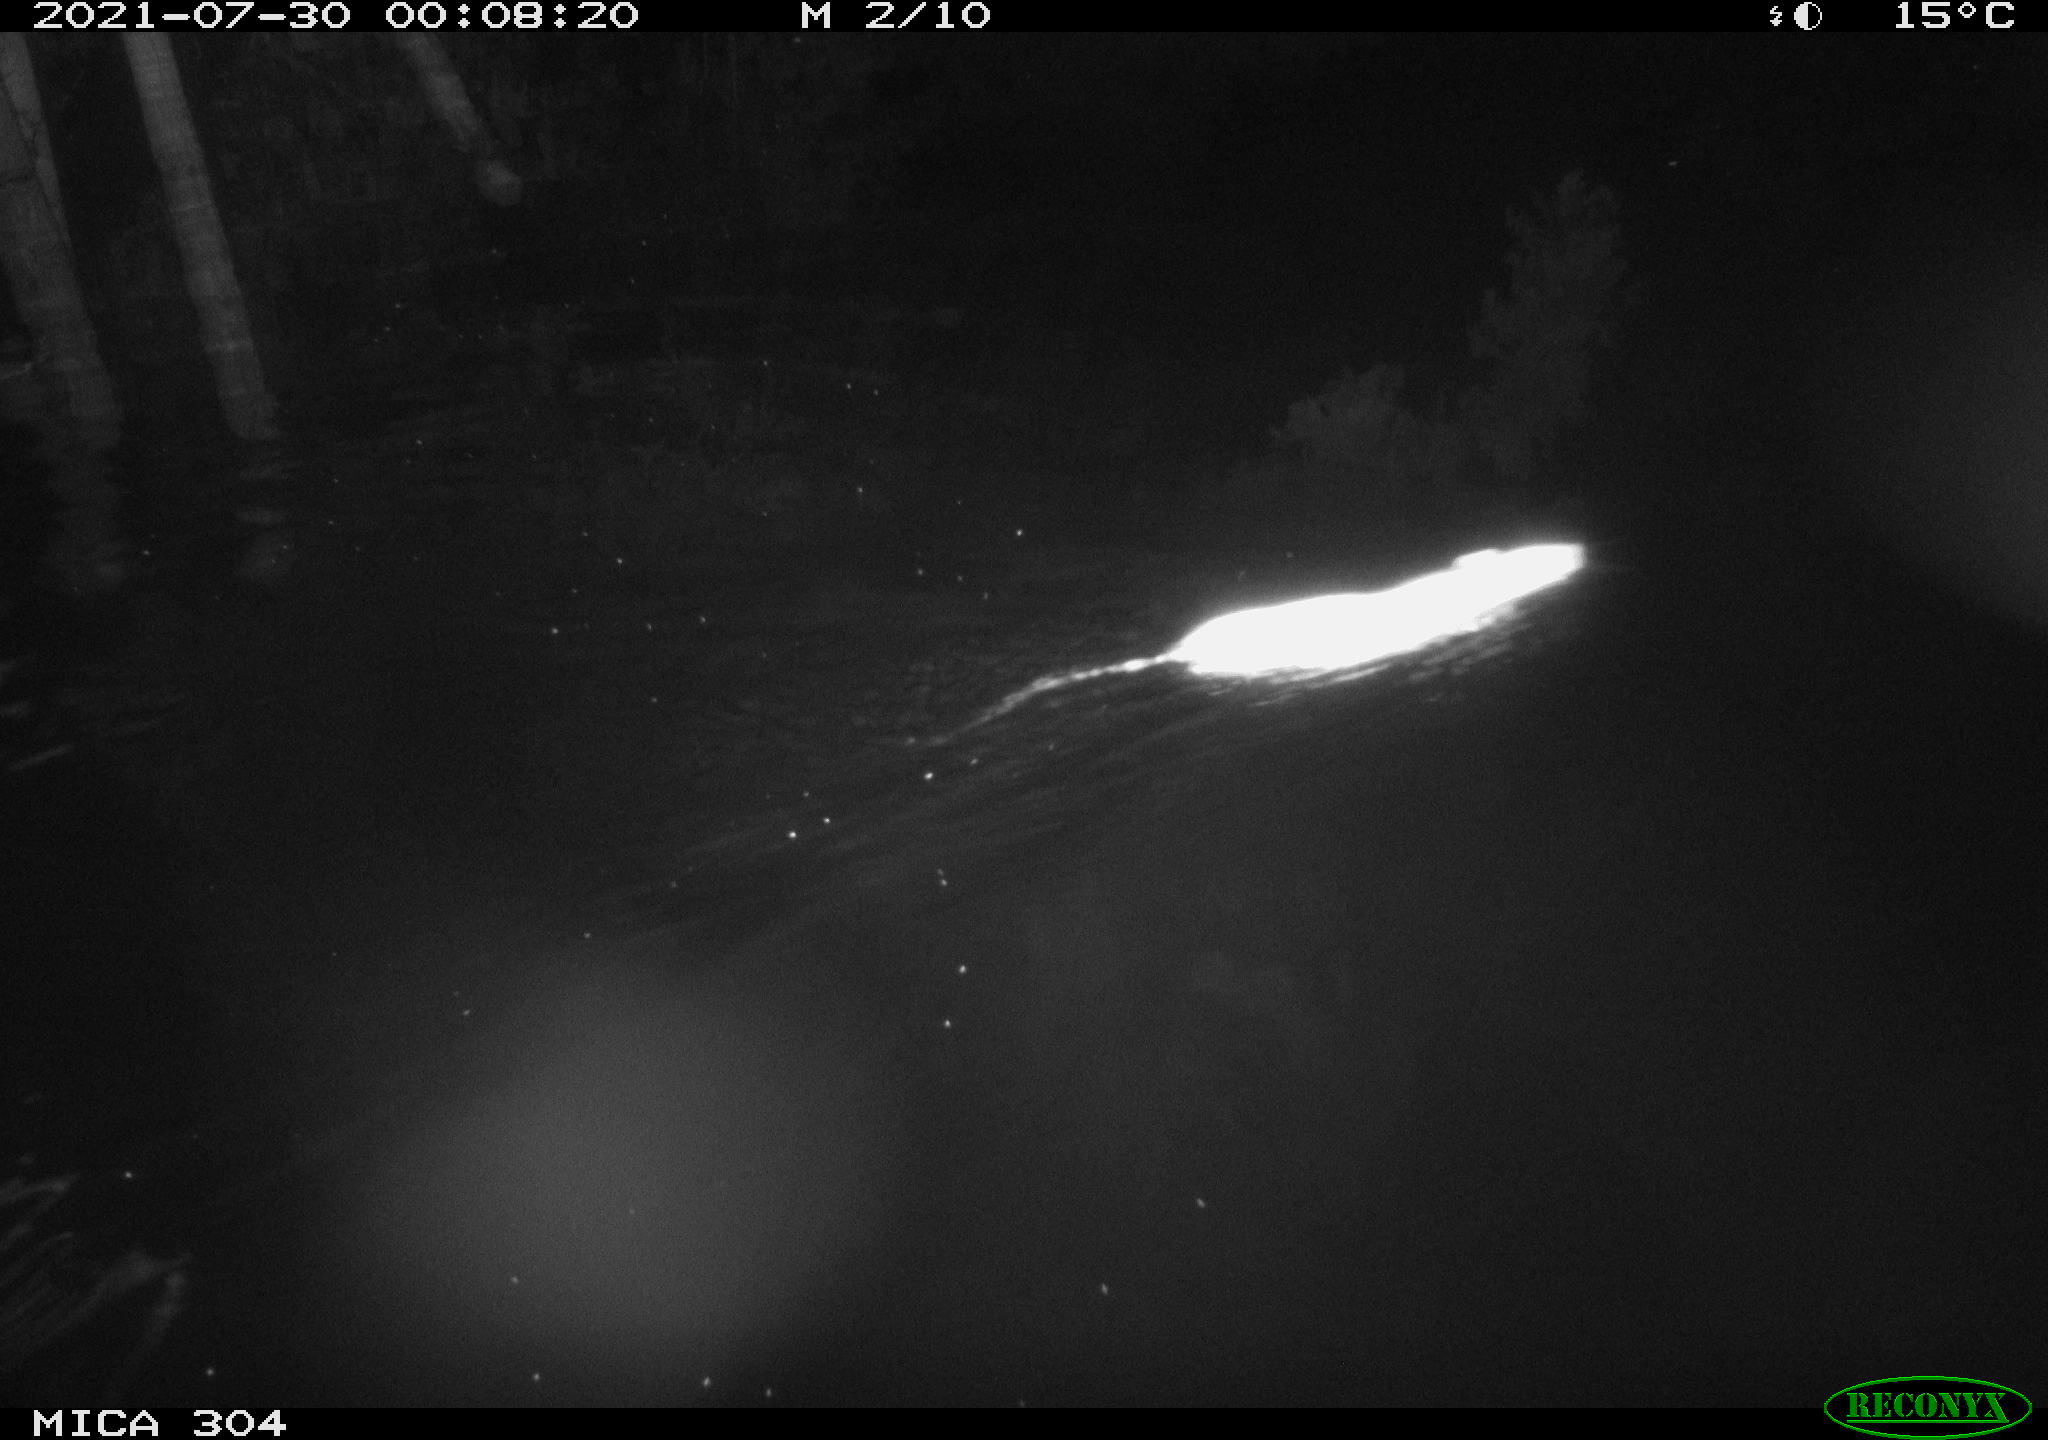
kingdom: Animalia
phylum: Chordata
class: Mammalia
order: Rodentia
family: Muridae
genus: Rattus
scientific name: Rattus norvegicus
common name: Brown rat
